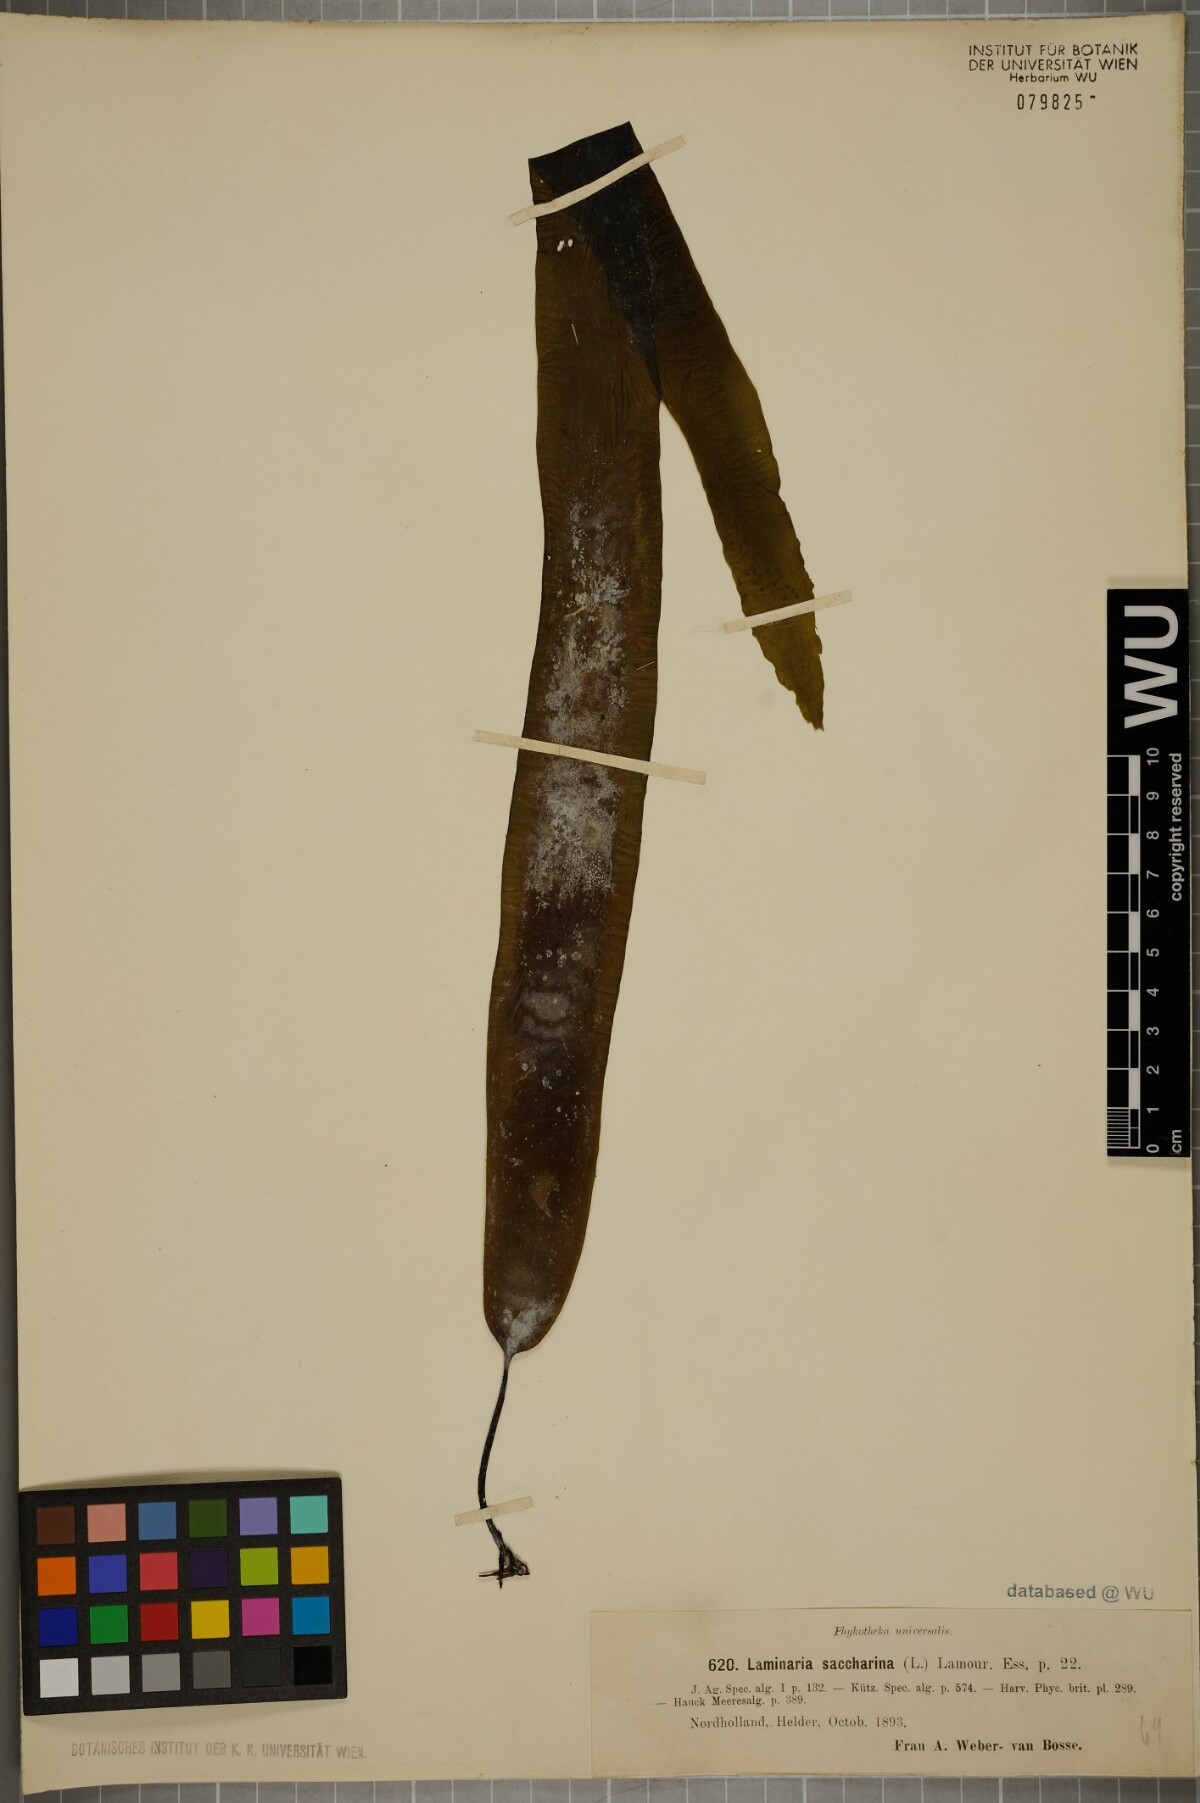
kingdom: Chromista
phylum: Ochrophyta
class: Phaeophyceae
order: Laminariales
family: Laminariaceae
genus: Saccharina
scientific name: Saccharina latissima
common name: Poor man's weather glass
